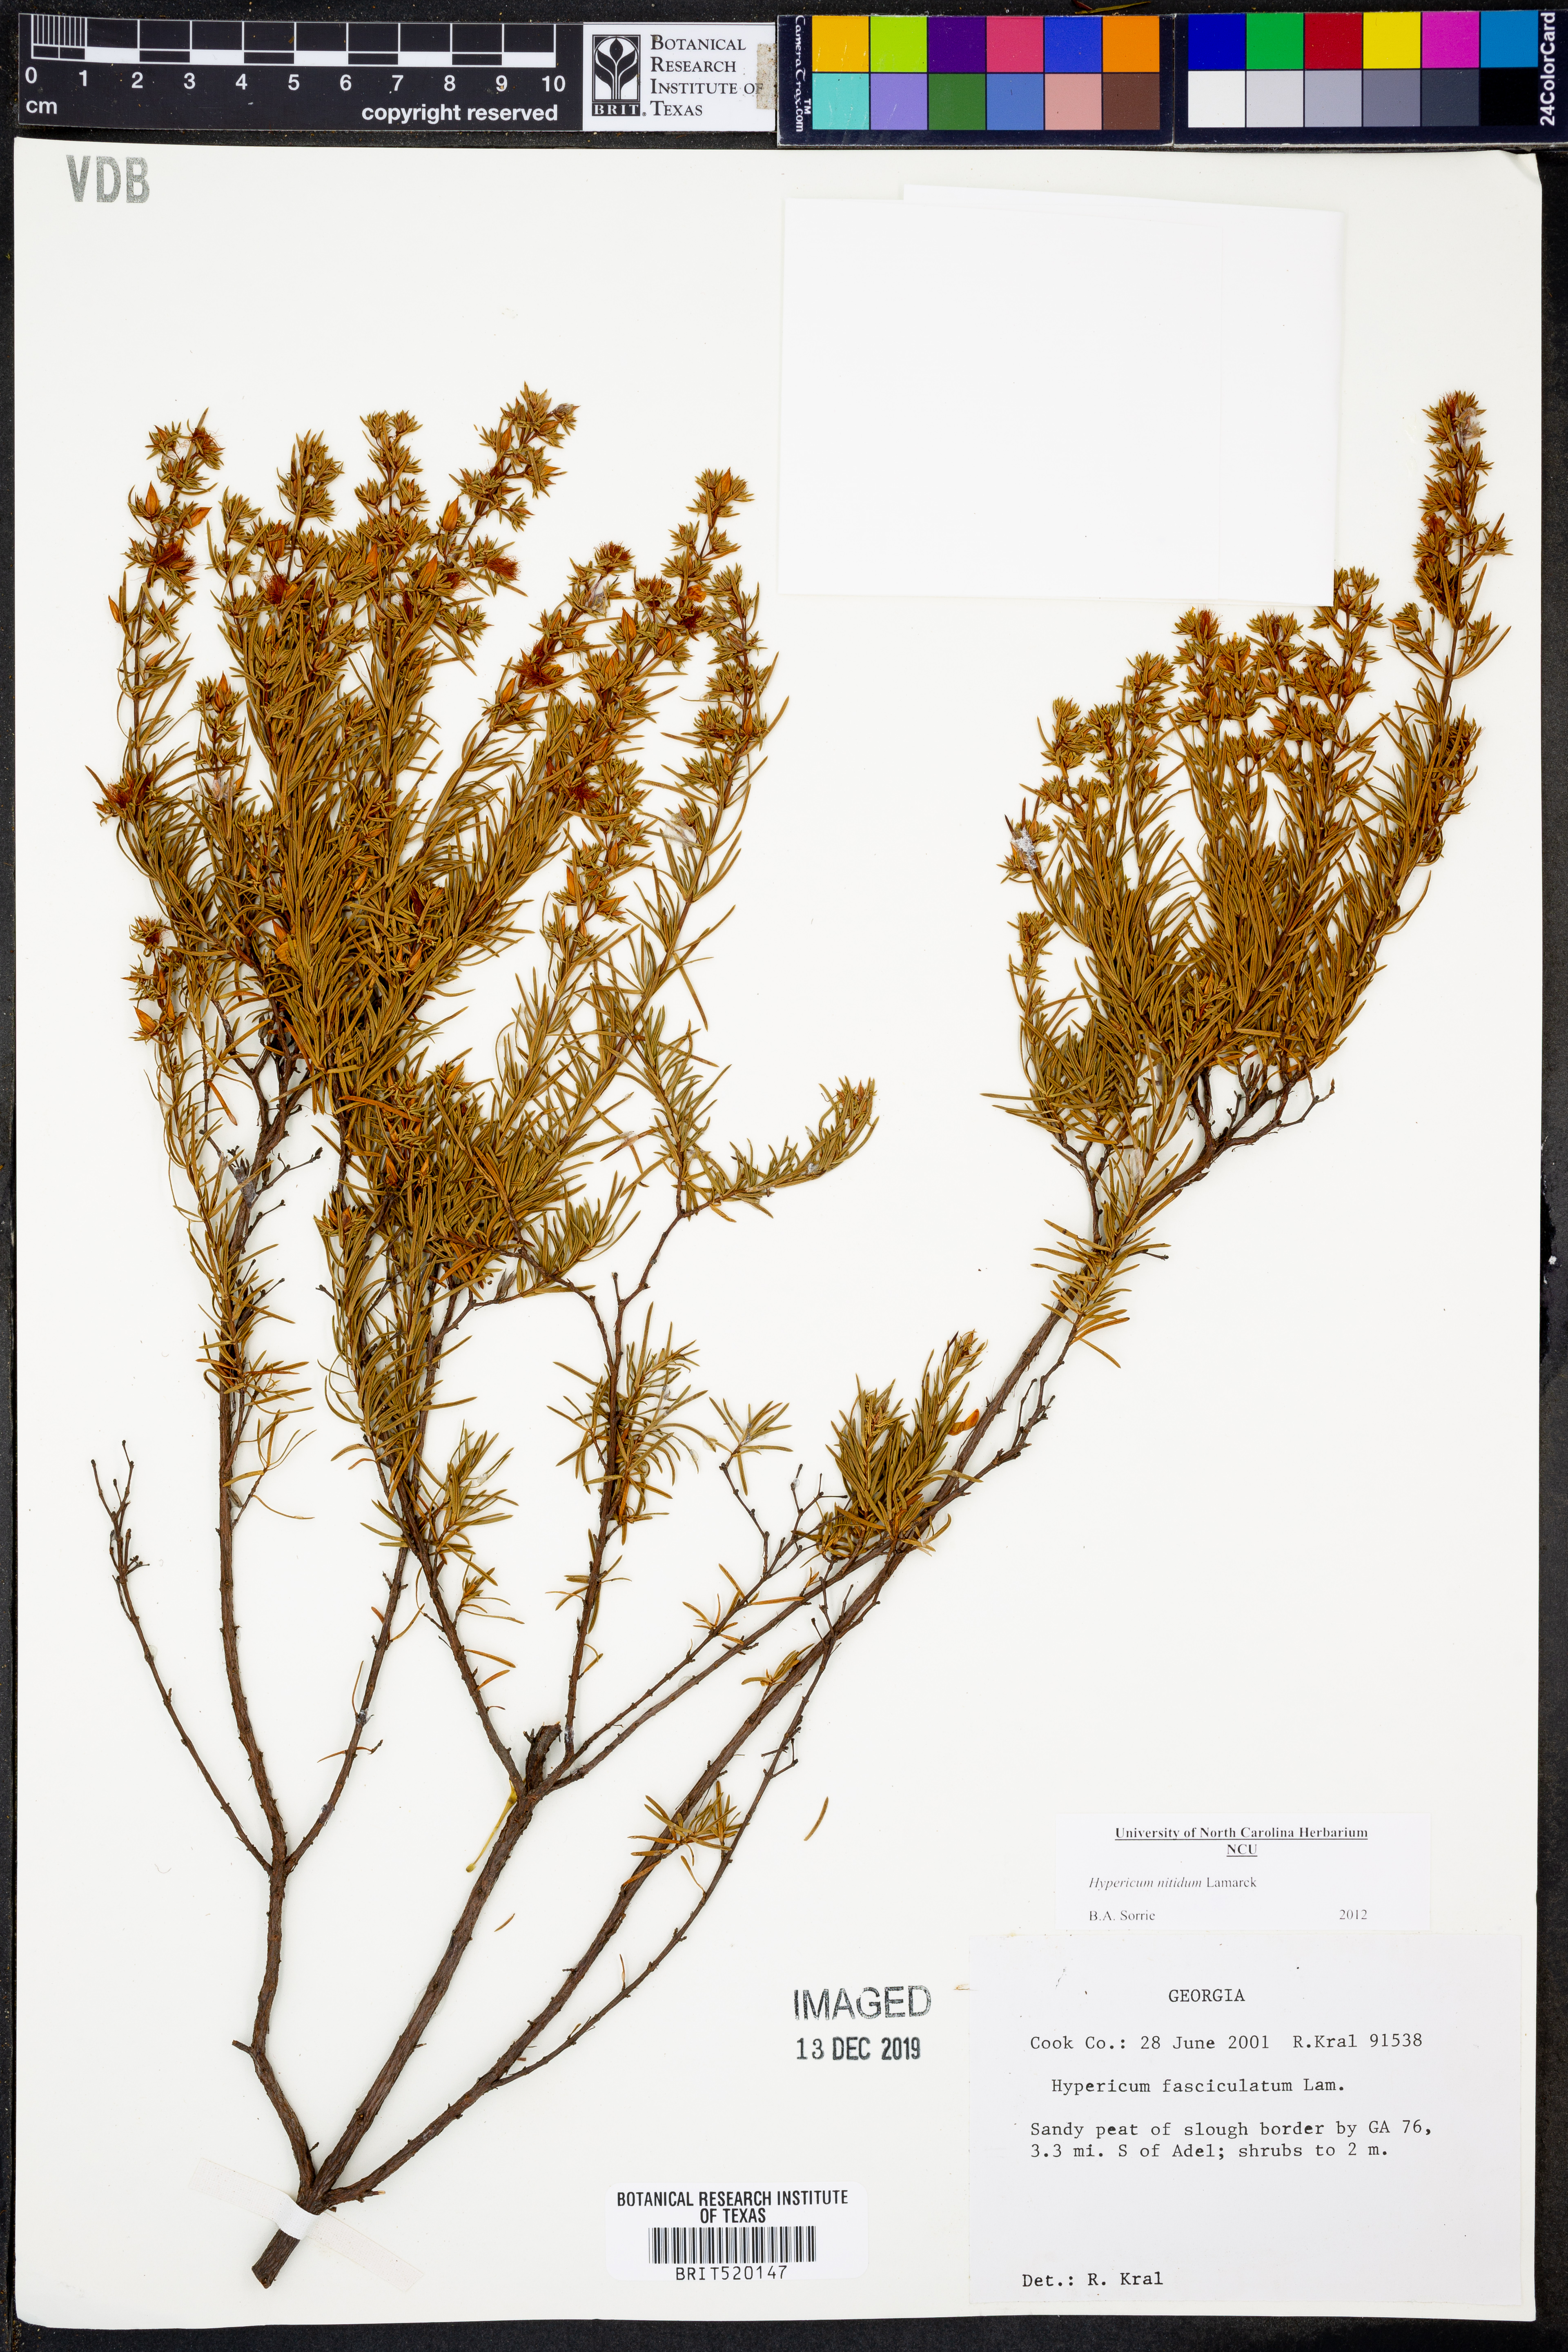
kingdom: Plantae
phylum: Tracheophyta
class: Magnoliopsida
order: Malpighiales
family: Hypericaceae
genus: Hypericum
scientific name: Hypericum nitidum
